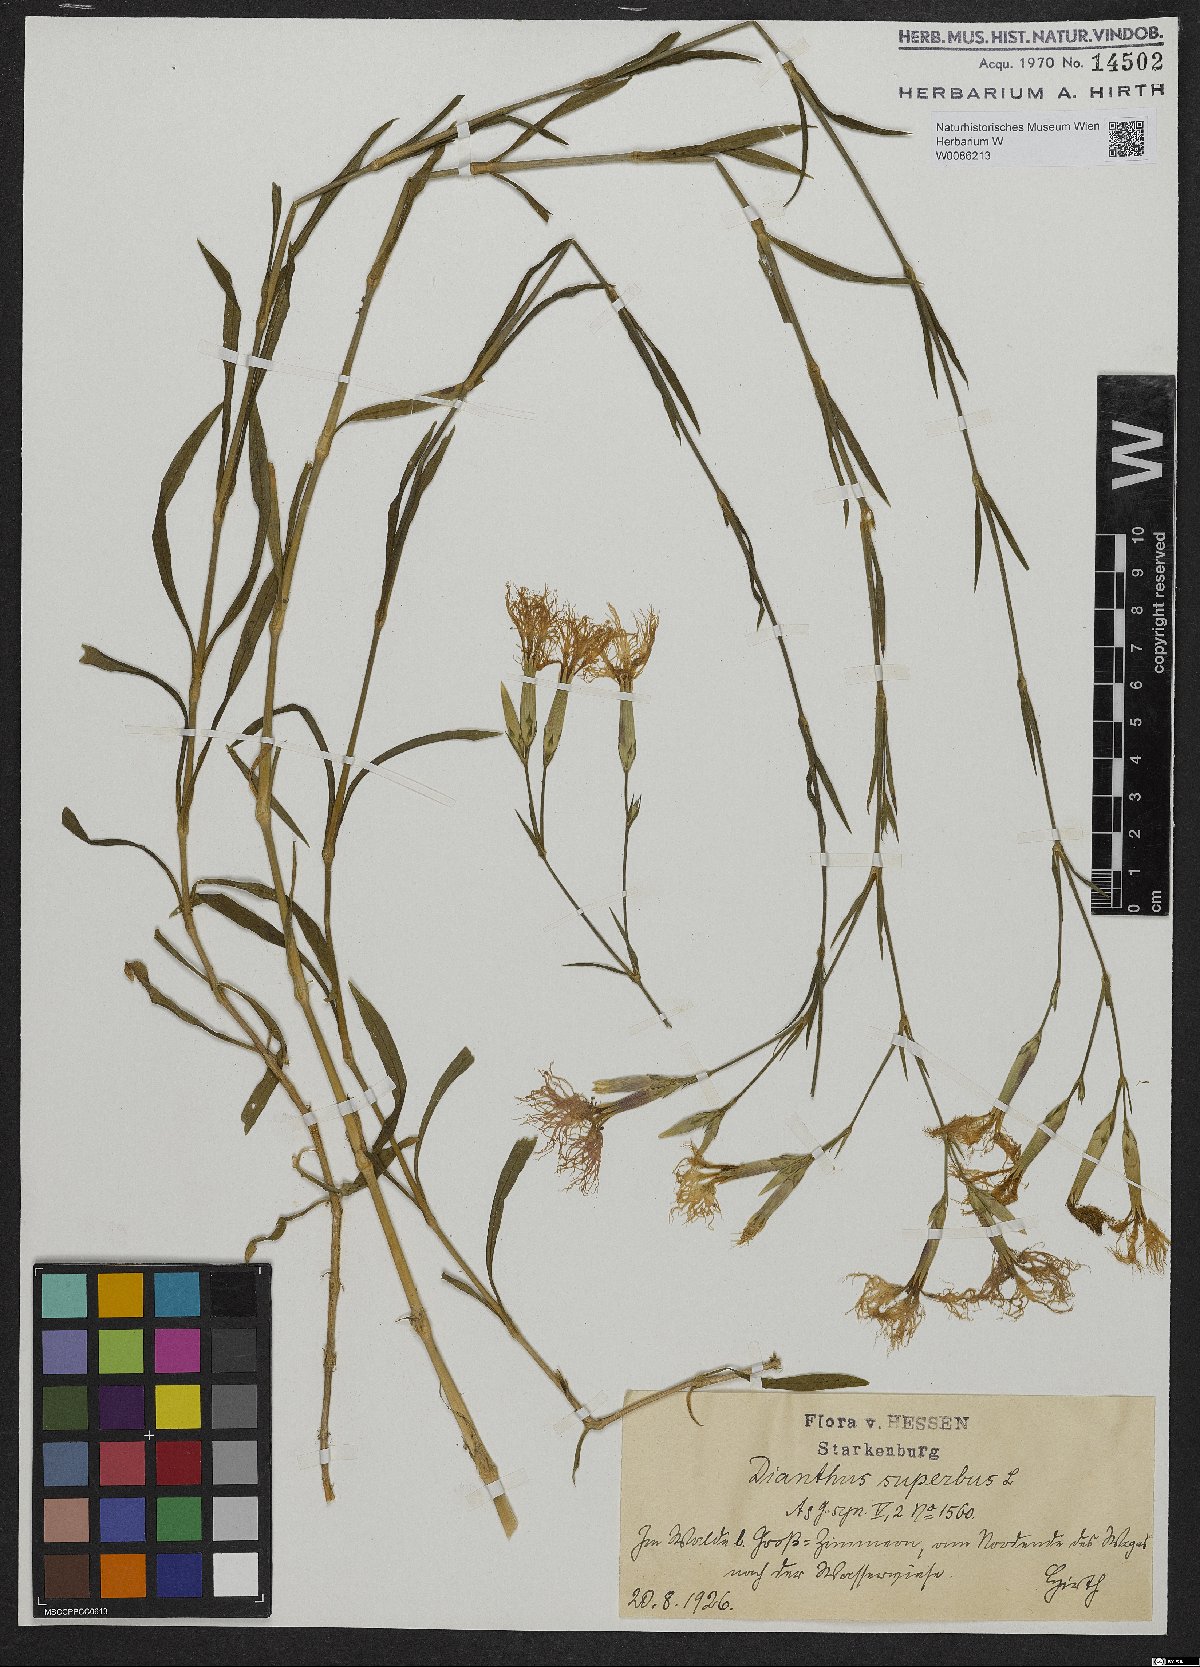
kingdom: Plantae
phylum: Tracheophyta
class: Magnoliopsida
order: Caryophyllales
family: Caryophyllaceae
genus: Dianthus
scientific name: Dianthus superbus
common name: Fringed pink
